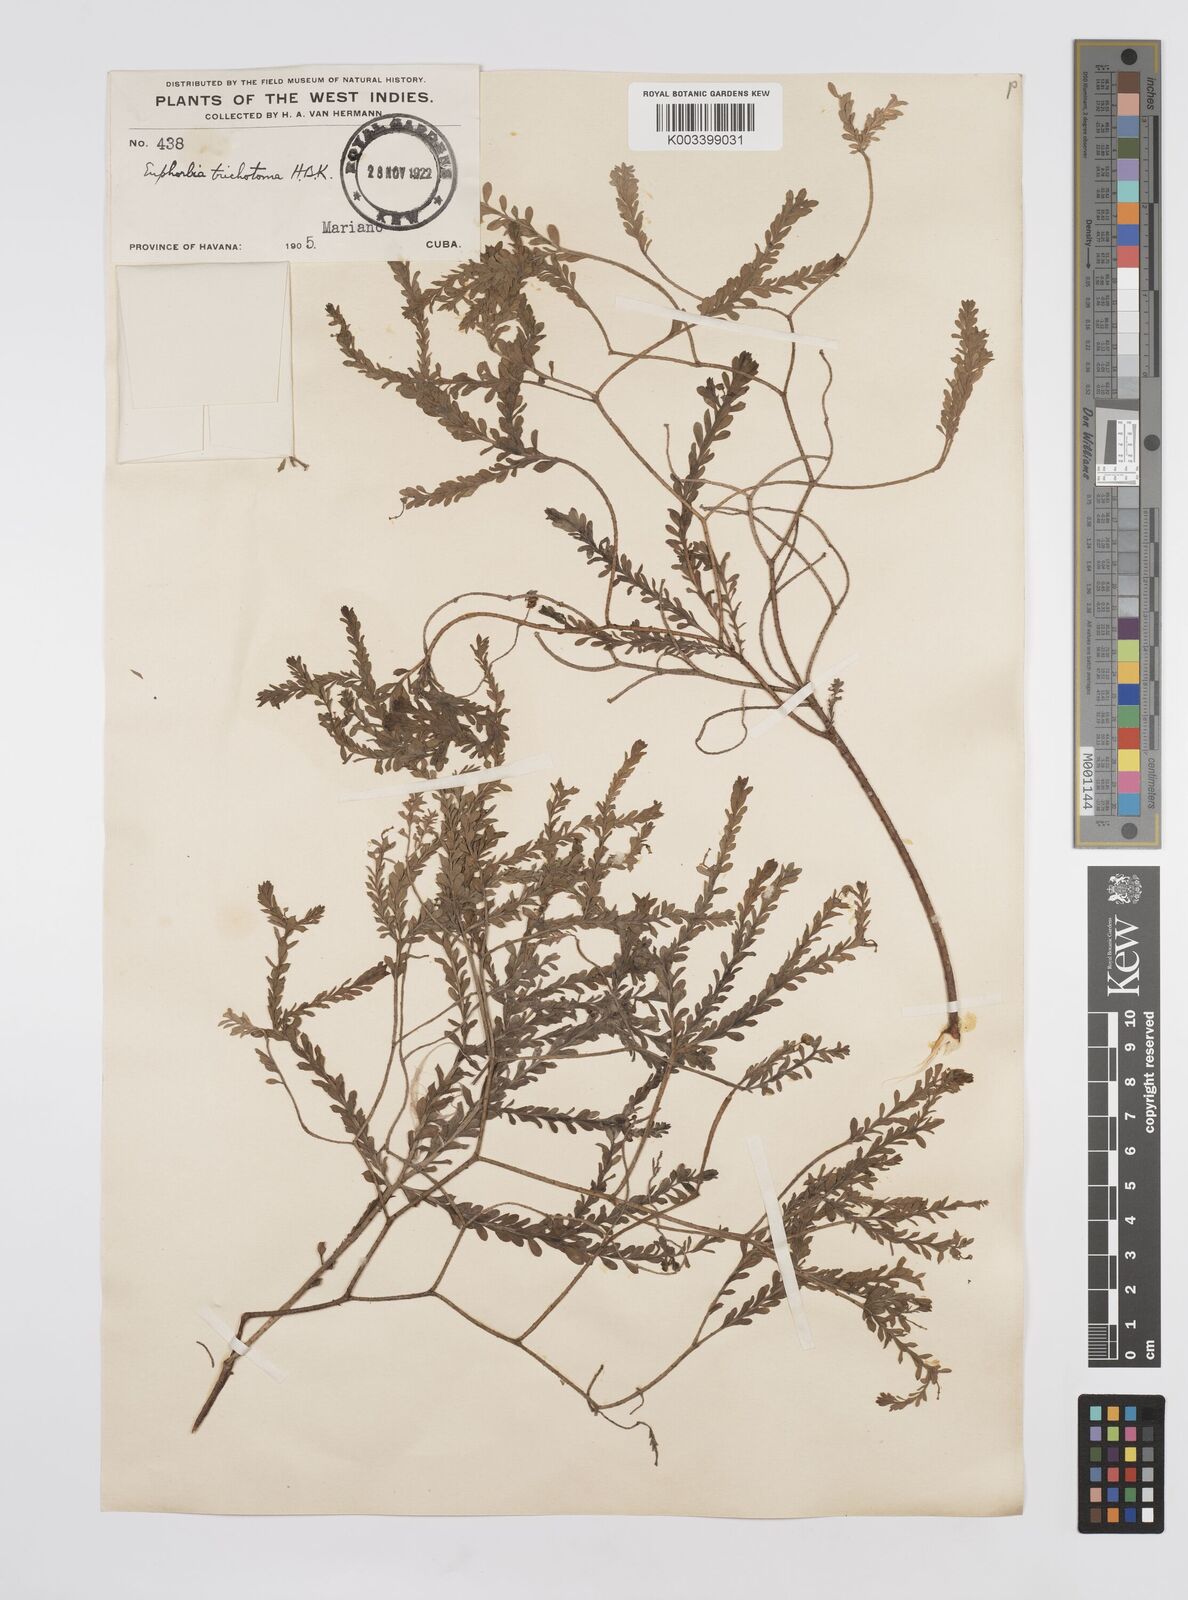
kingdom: Plantae
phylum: Tracheophyta
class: Magnoliopsida
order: Malpighiales
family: Euphorbiaceae
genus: Euphorbia
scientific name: Euphorbia trichotoma
